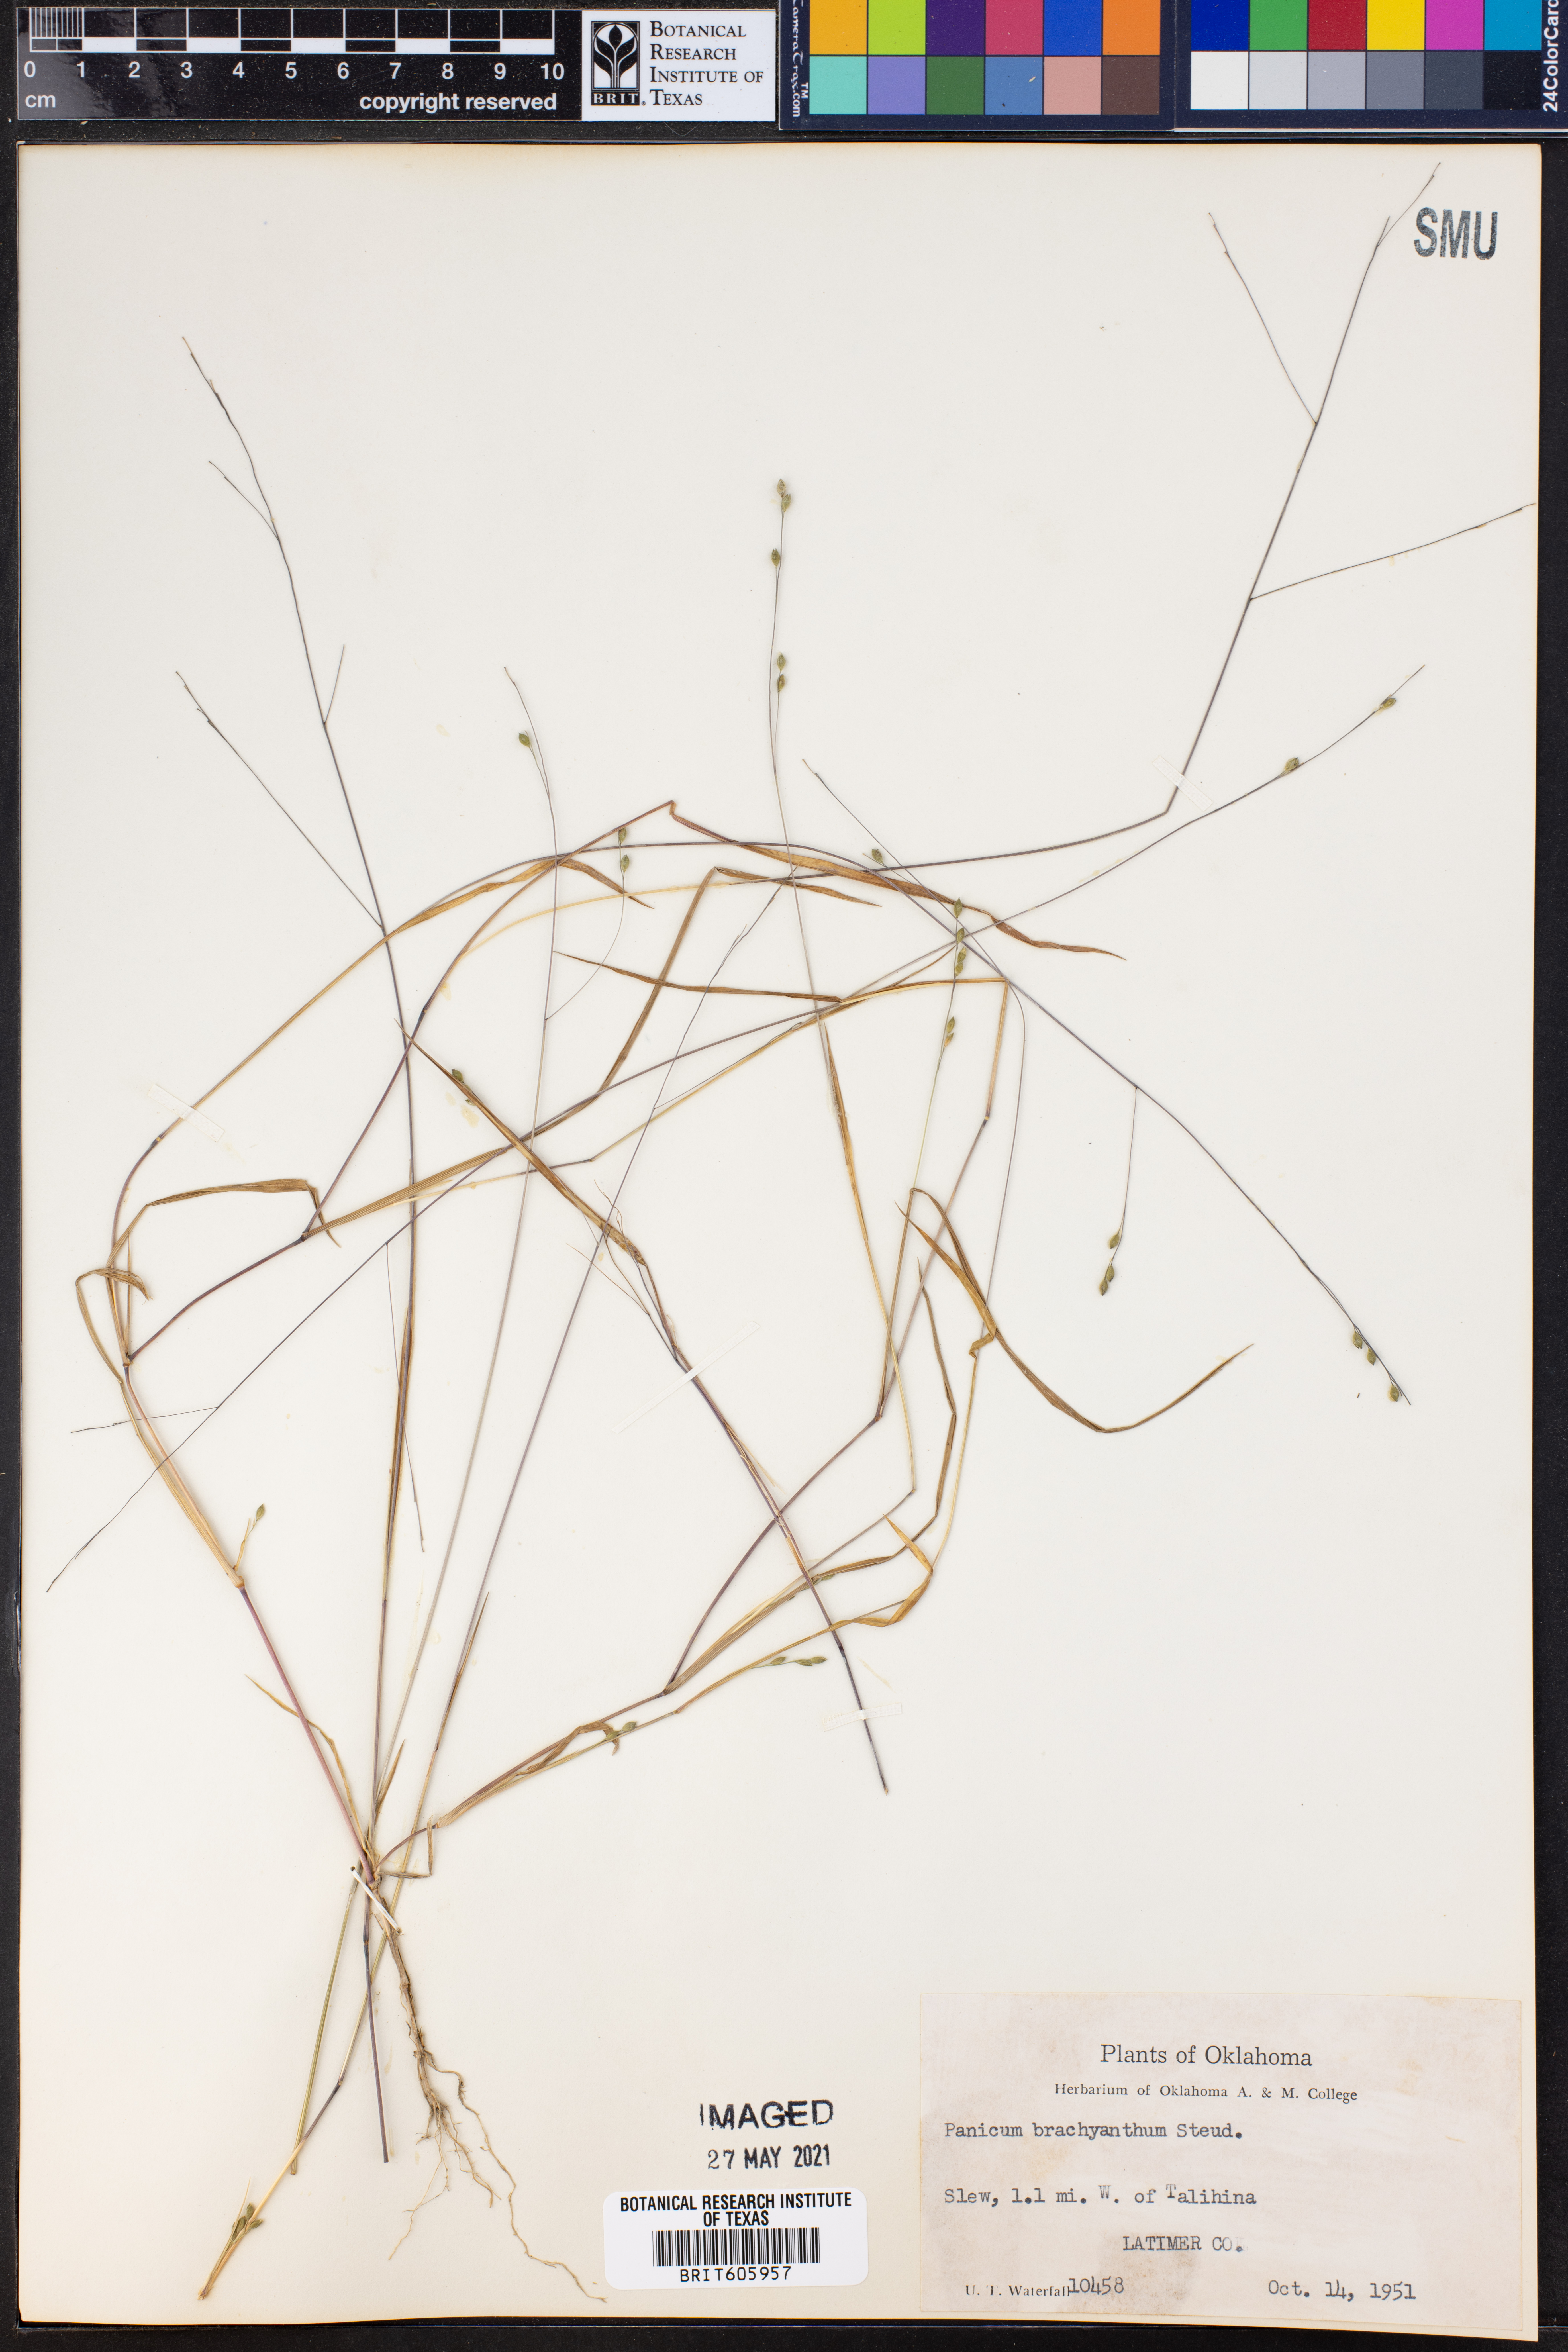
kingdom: Plantae
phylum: Tracheophyta
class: Liliopsida
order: Poales
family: Poaceae
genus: Kellochloa
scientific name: Kellochloa brachyantha
